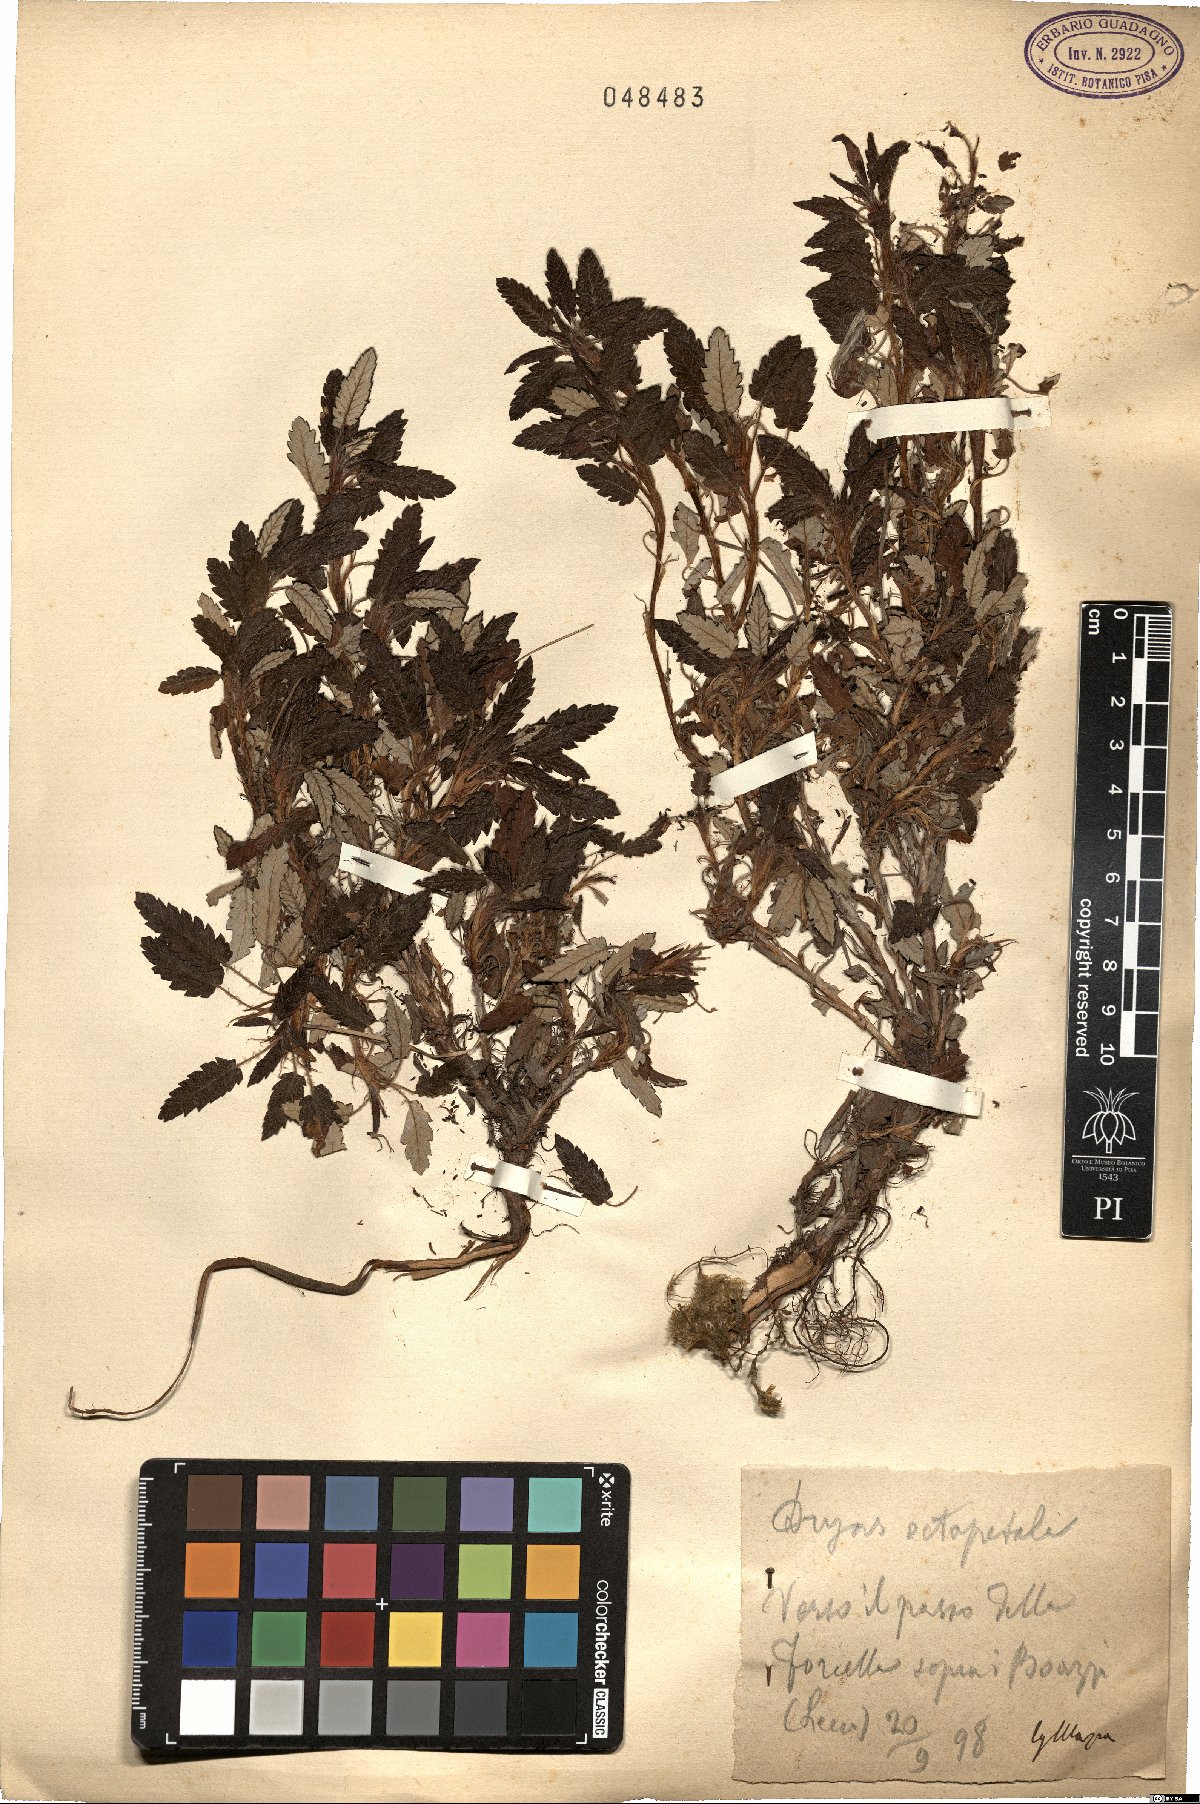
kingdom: Plantae
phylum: Tracheophyta
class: Magnoliopsida
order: Rosales
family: Rosaceae
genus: Dryas
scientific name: Dryas octopetala
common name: Eight-petal mountain-avens
